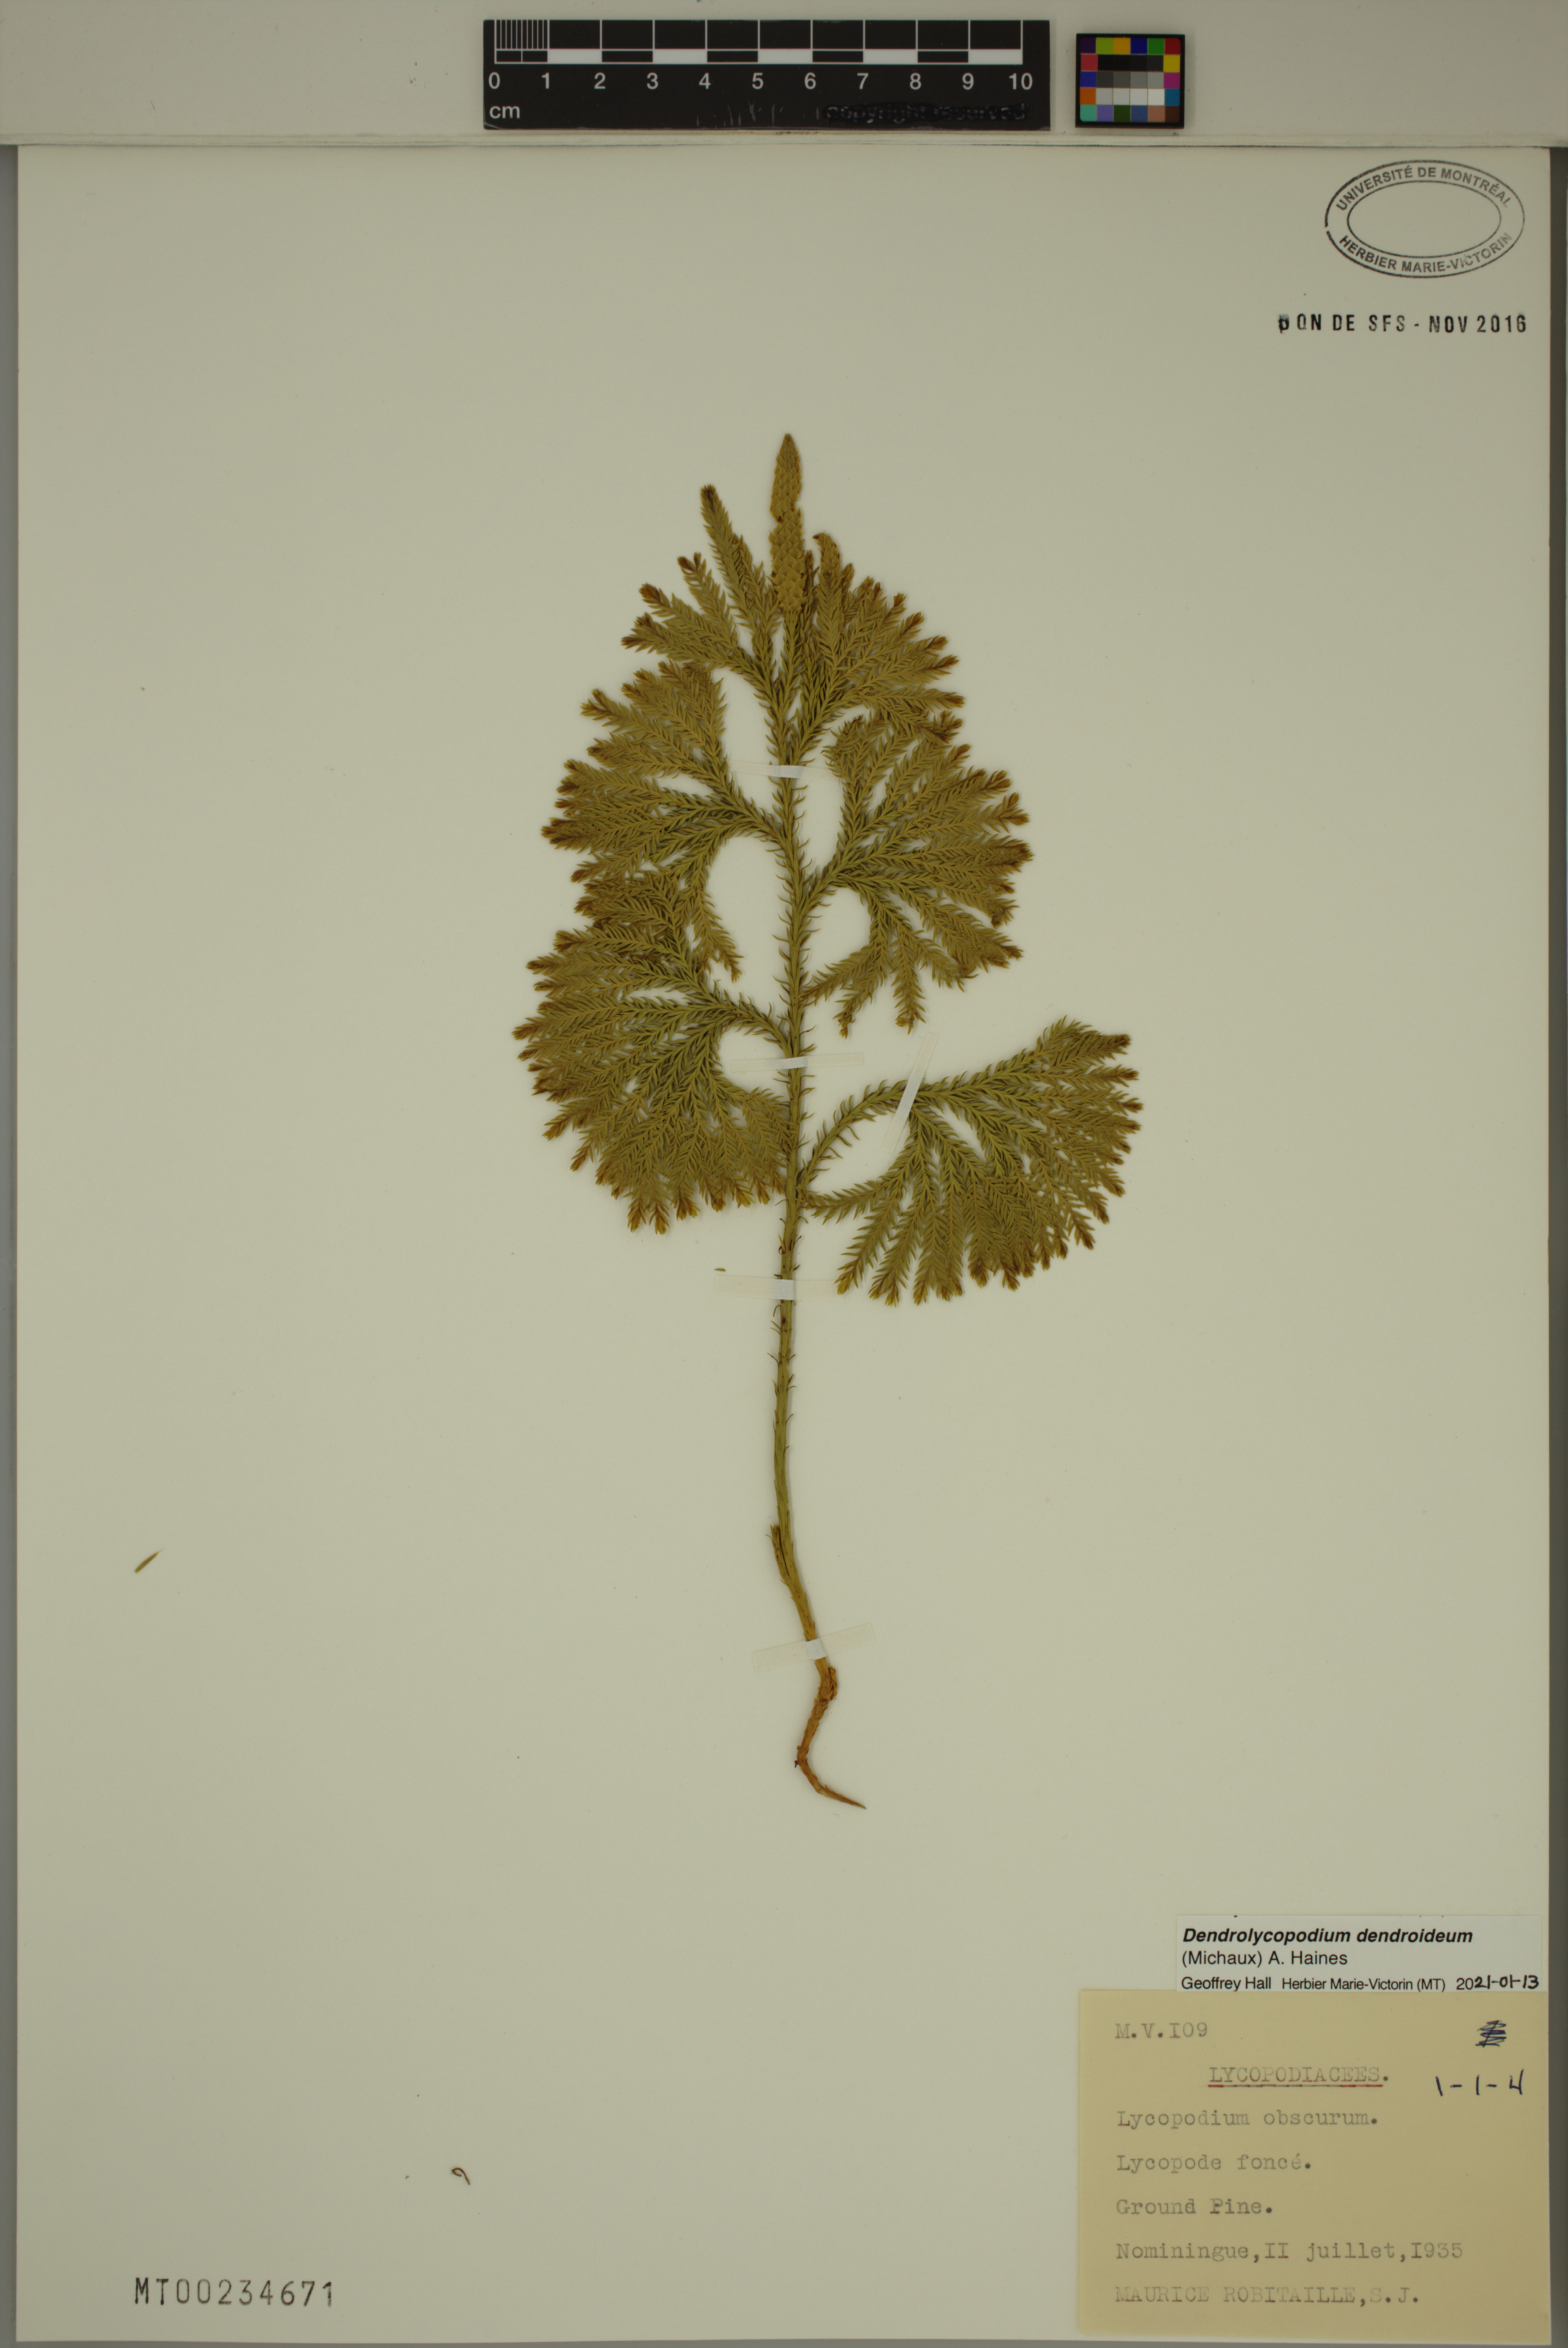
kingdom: Plantae
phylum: Tracheophyta
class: Lycopodiopsida
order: Lycopodiales
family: Lycopodiaceae
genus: Dendrolycopodium
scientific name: Dendrolycopodium dendroideum
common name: Northern tree-clubmoss
